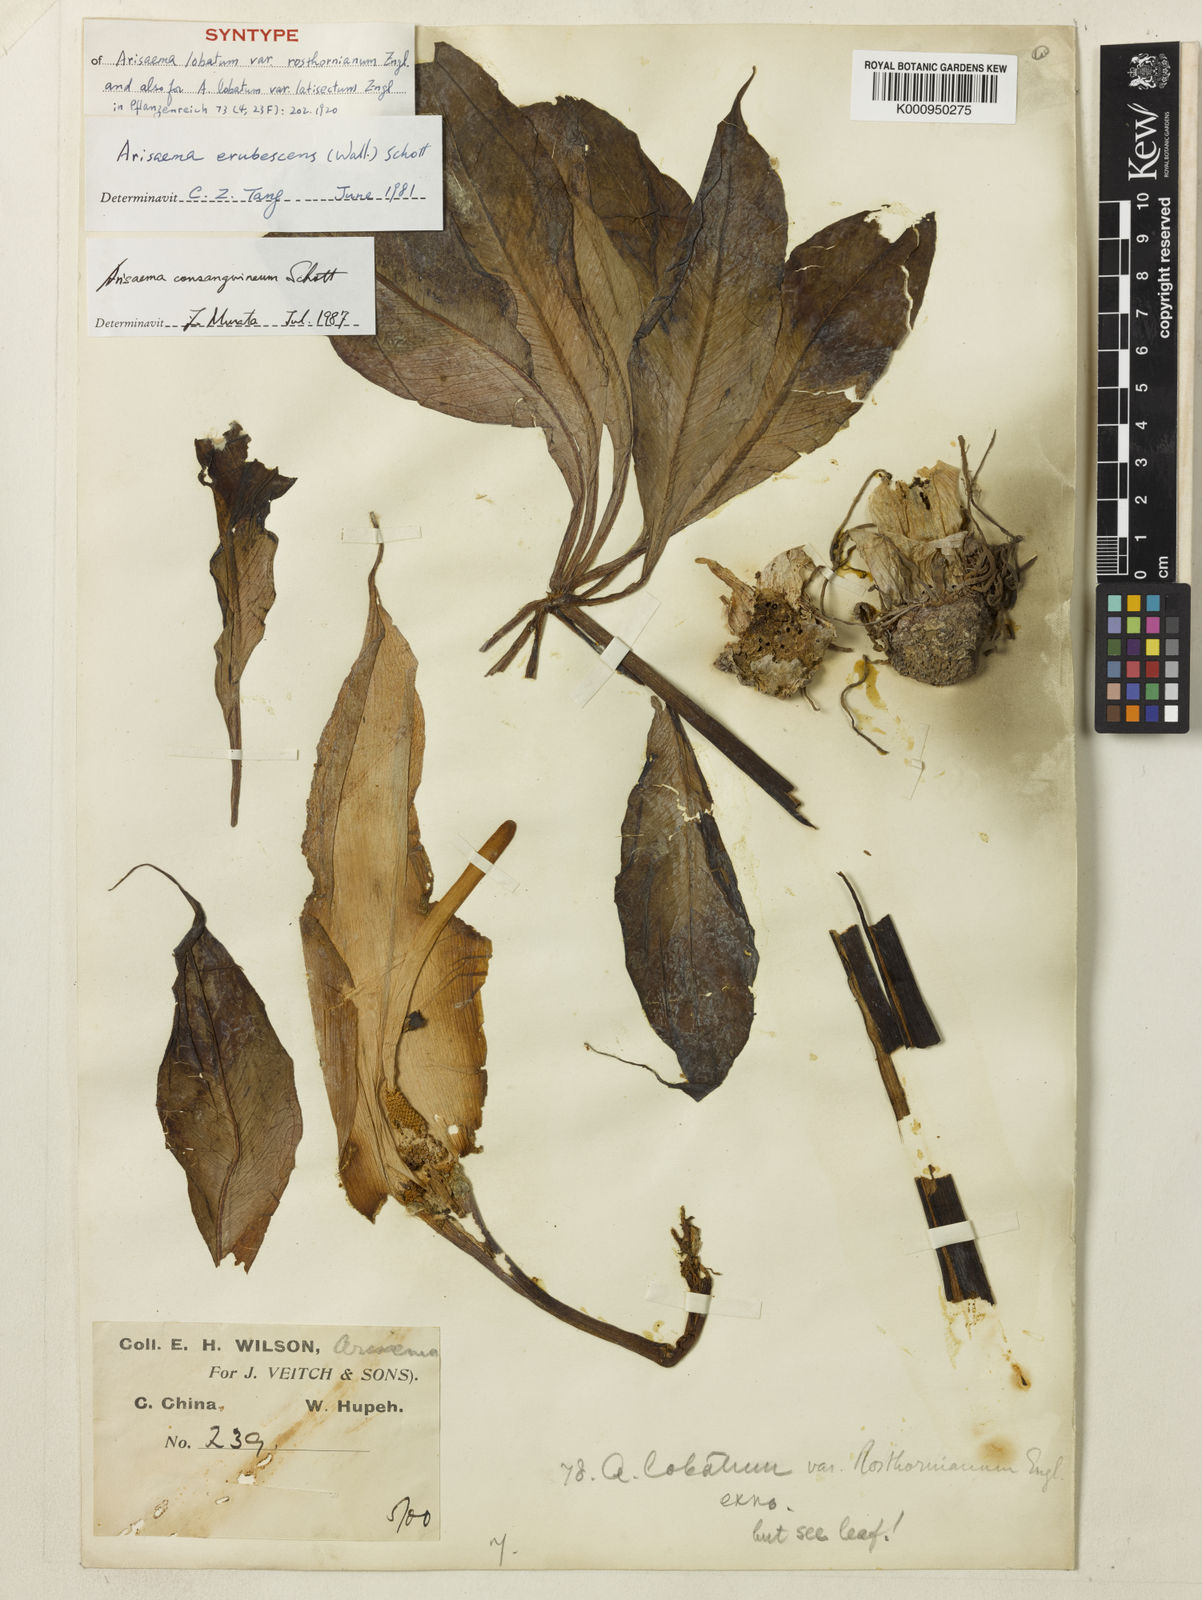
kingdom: Plantae
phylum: Tracheophyta
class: Liliopsida
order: Alismatales
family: Araceae
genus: Arisaema
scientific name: Arisaema lobatum
